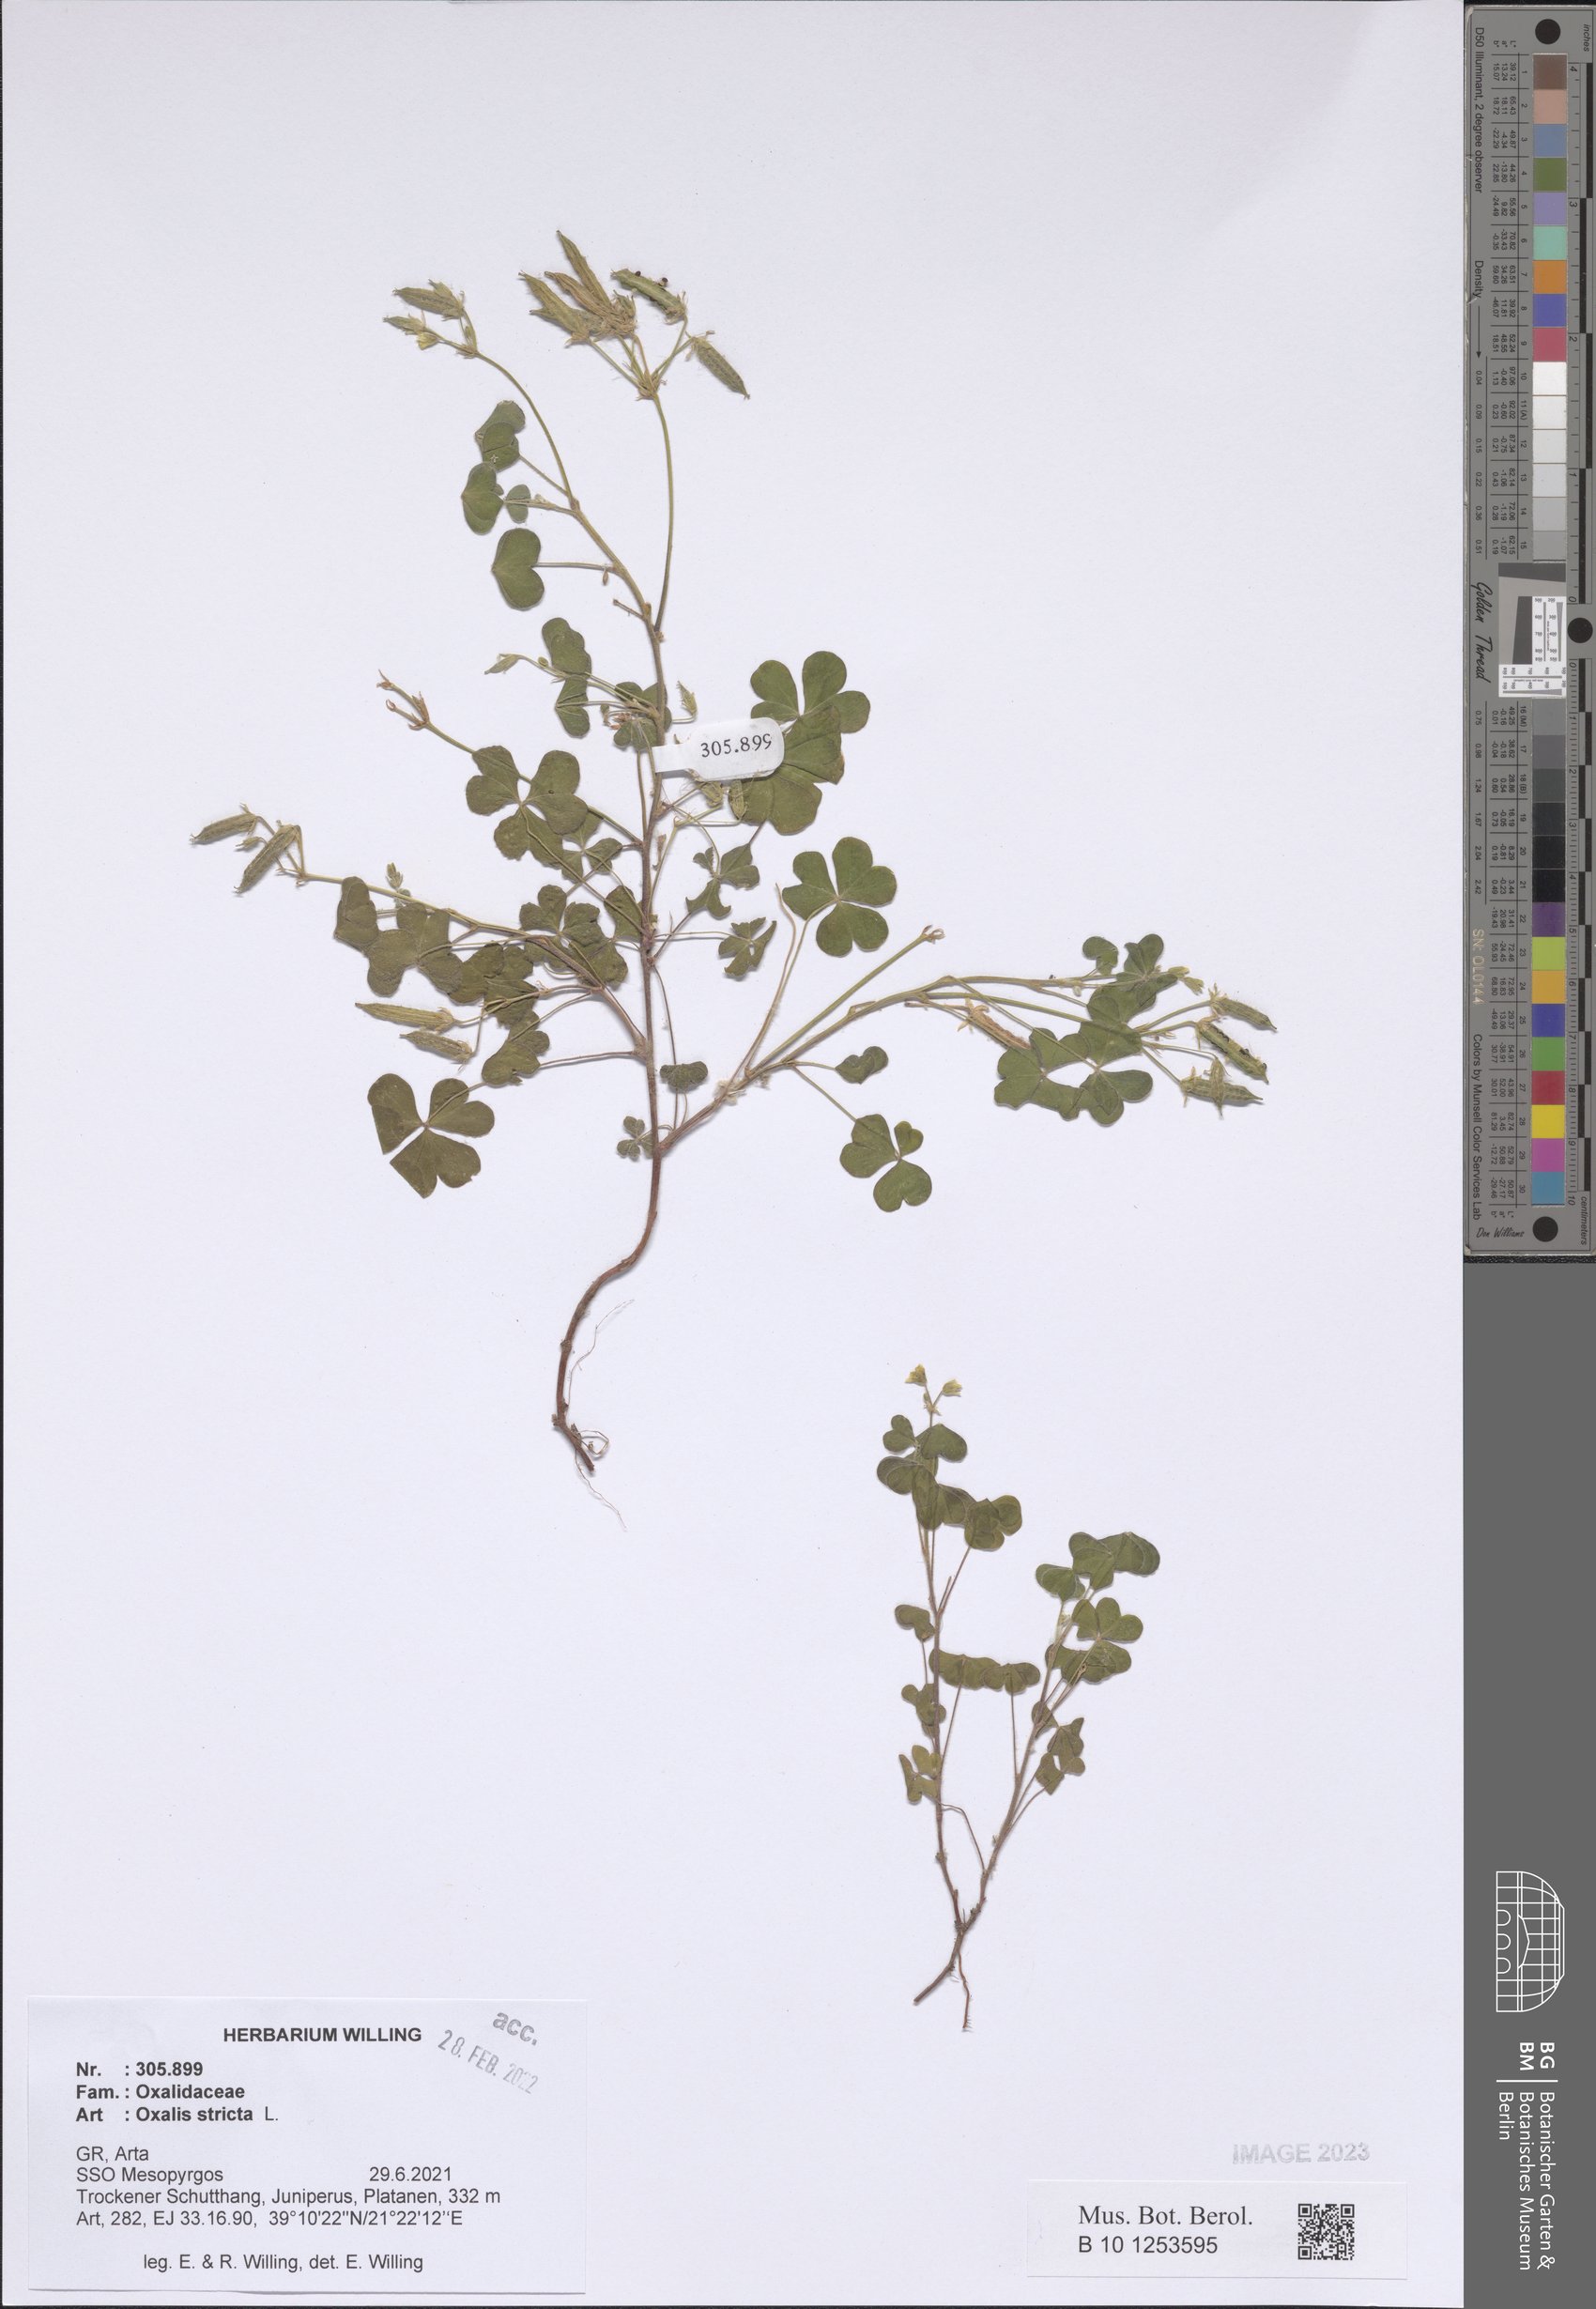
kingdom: Plantae
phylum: Tracheophyta
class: Magnoliopsida
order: Oxalidales
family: Oxalidaceae
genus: Oxalis
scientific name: Oxalis stricta
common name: Upright yellow-sorrel
